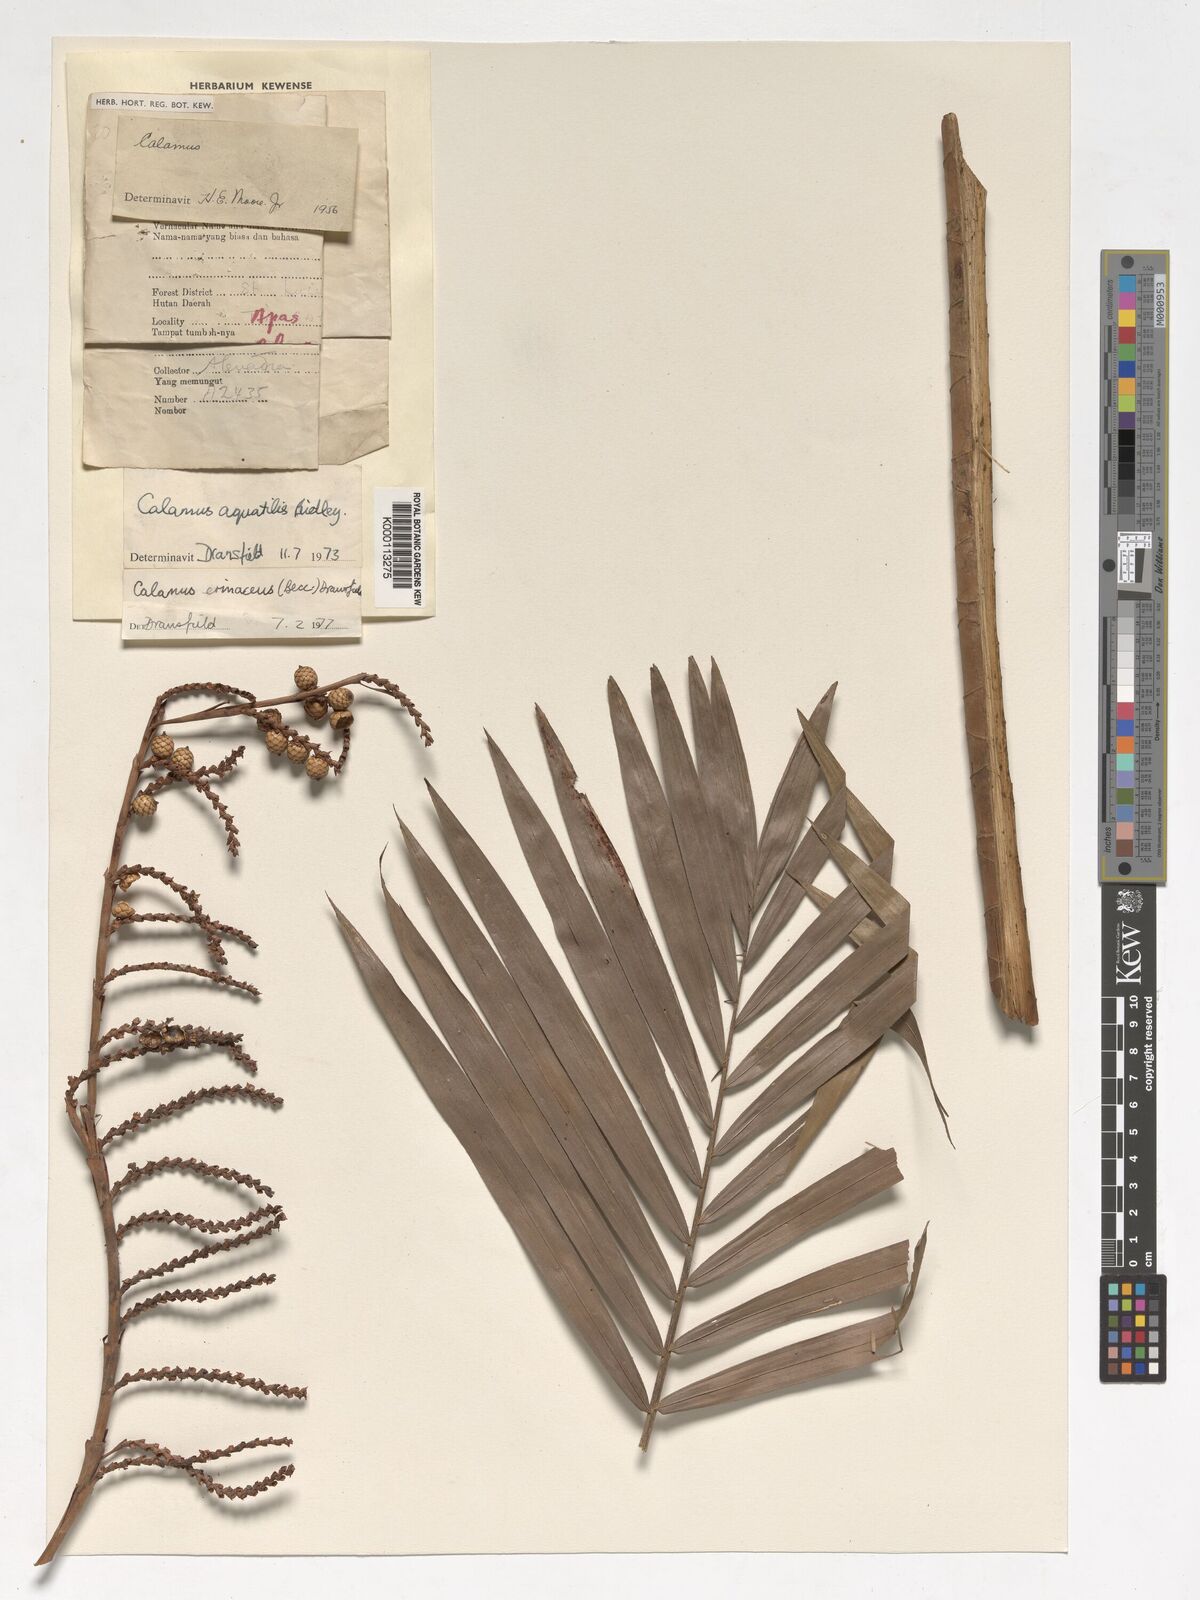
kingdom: Plantae
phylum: Tracheophyta
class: Liliopsida
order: Arecales
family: Arecaceae
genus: Calamus
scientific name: Calamus
